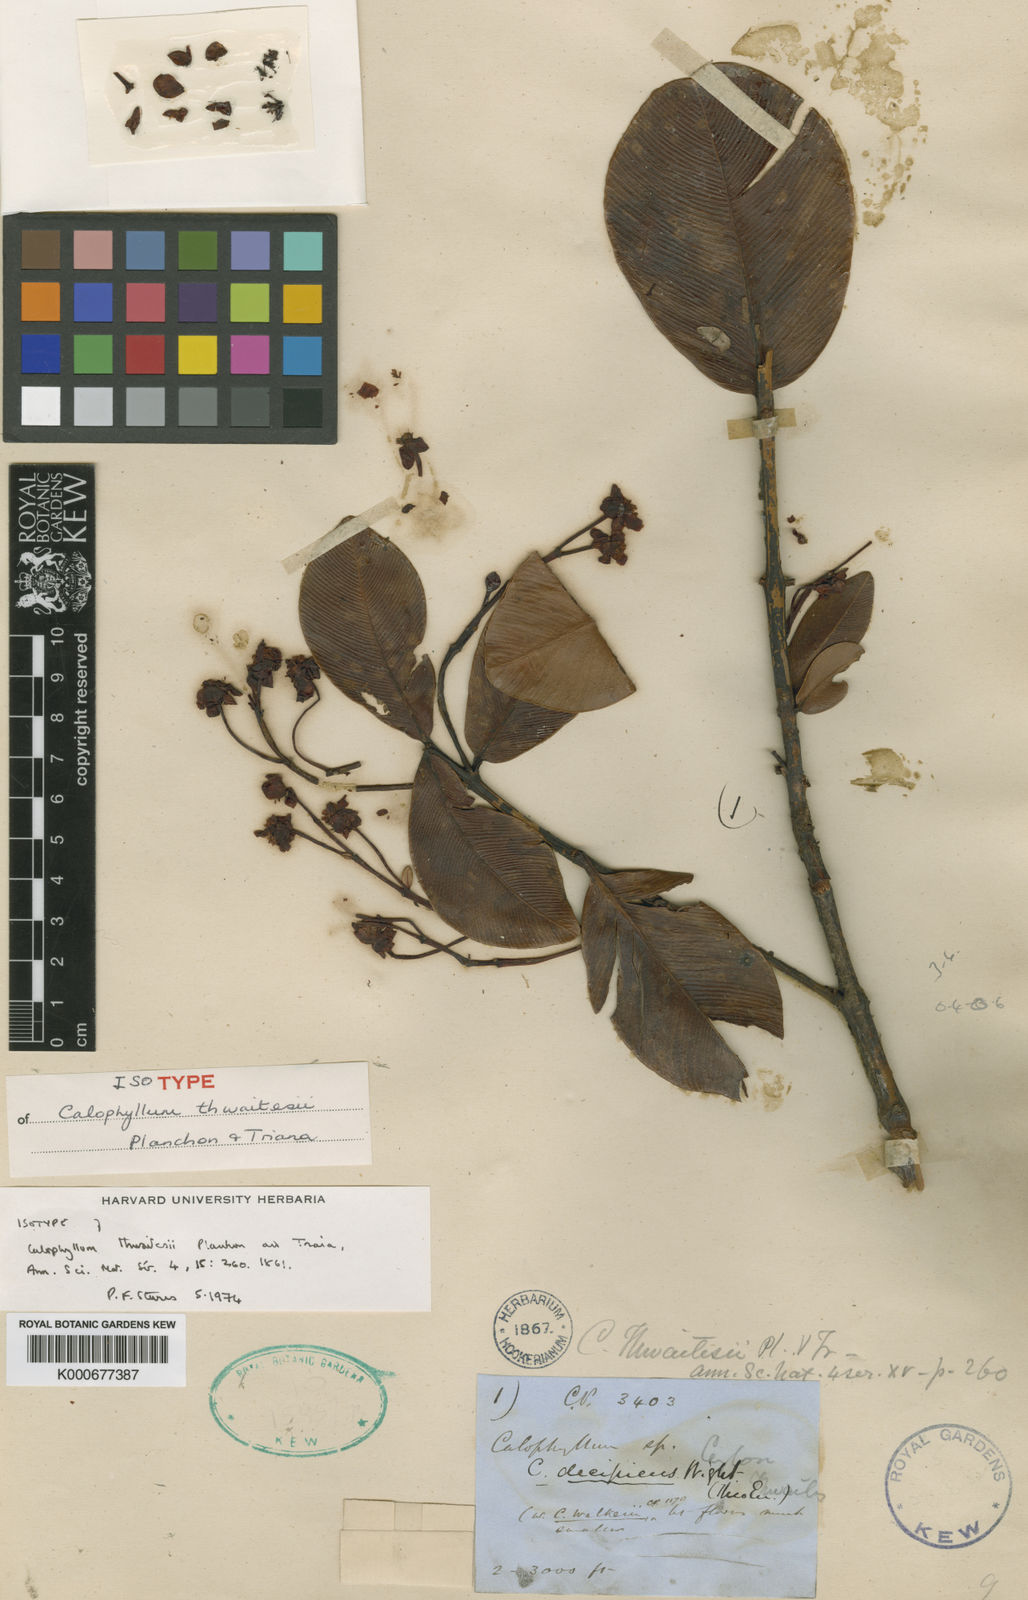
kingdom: Plantae
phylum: Tracheophyta
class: Magnoliopsida
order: Malpighiales
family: Calophyllaceae
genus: Calophyllum
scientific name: Calophyllum thwaitesii
